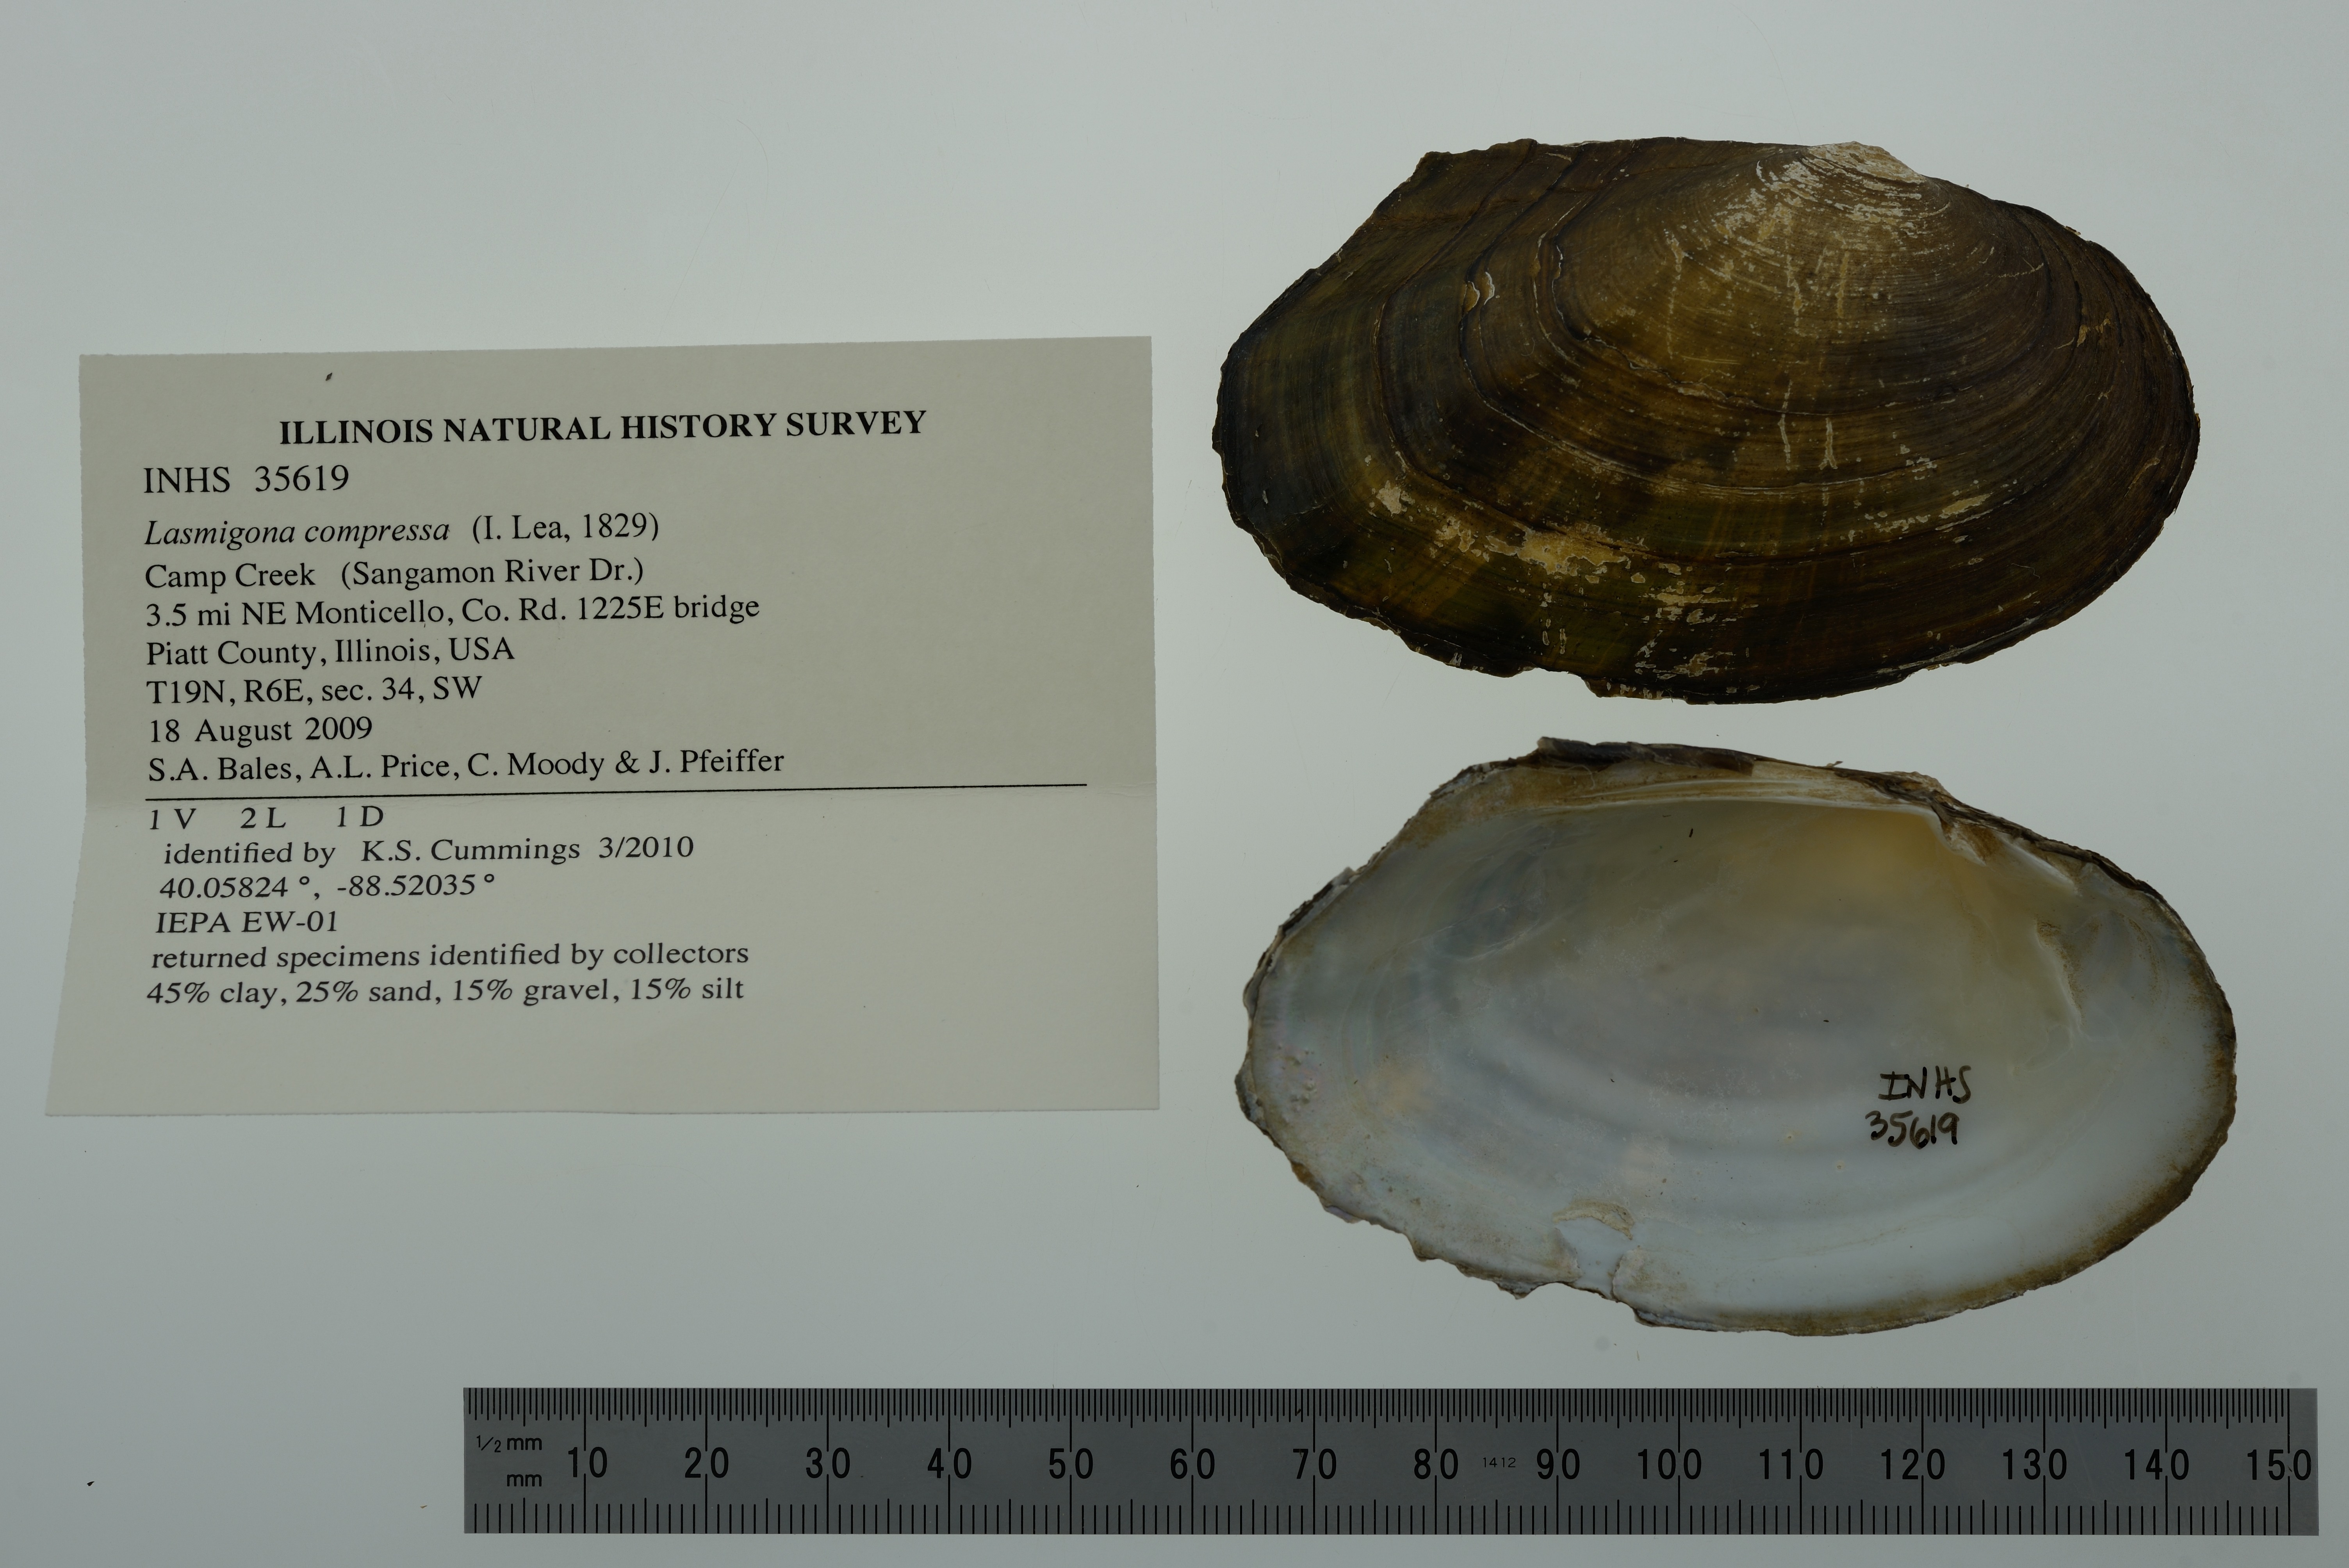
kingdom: Animalia
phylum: Mollusca
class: Bivalvia
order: Unionida
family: Unionidae
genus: Lasmigona
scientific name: Lasmigona compressa
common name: Creek heelsplitter
